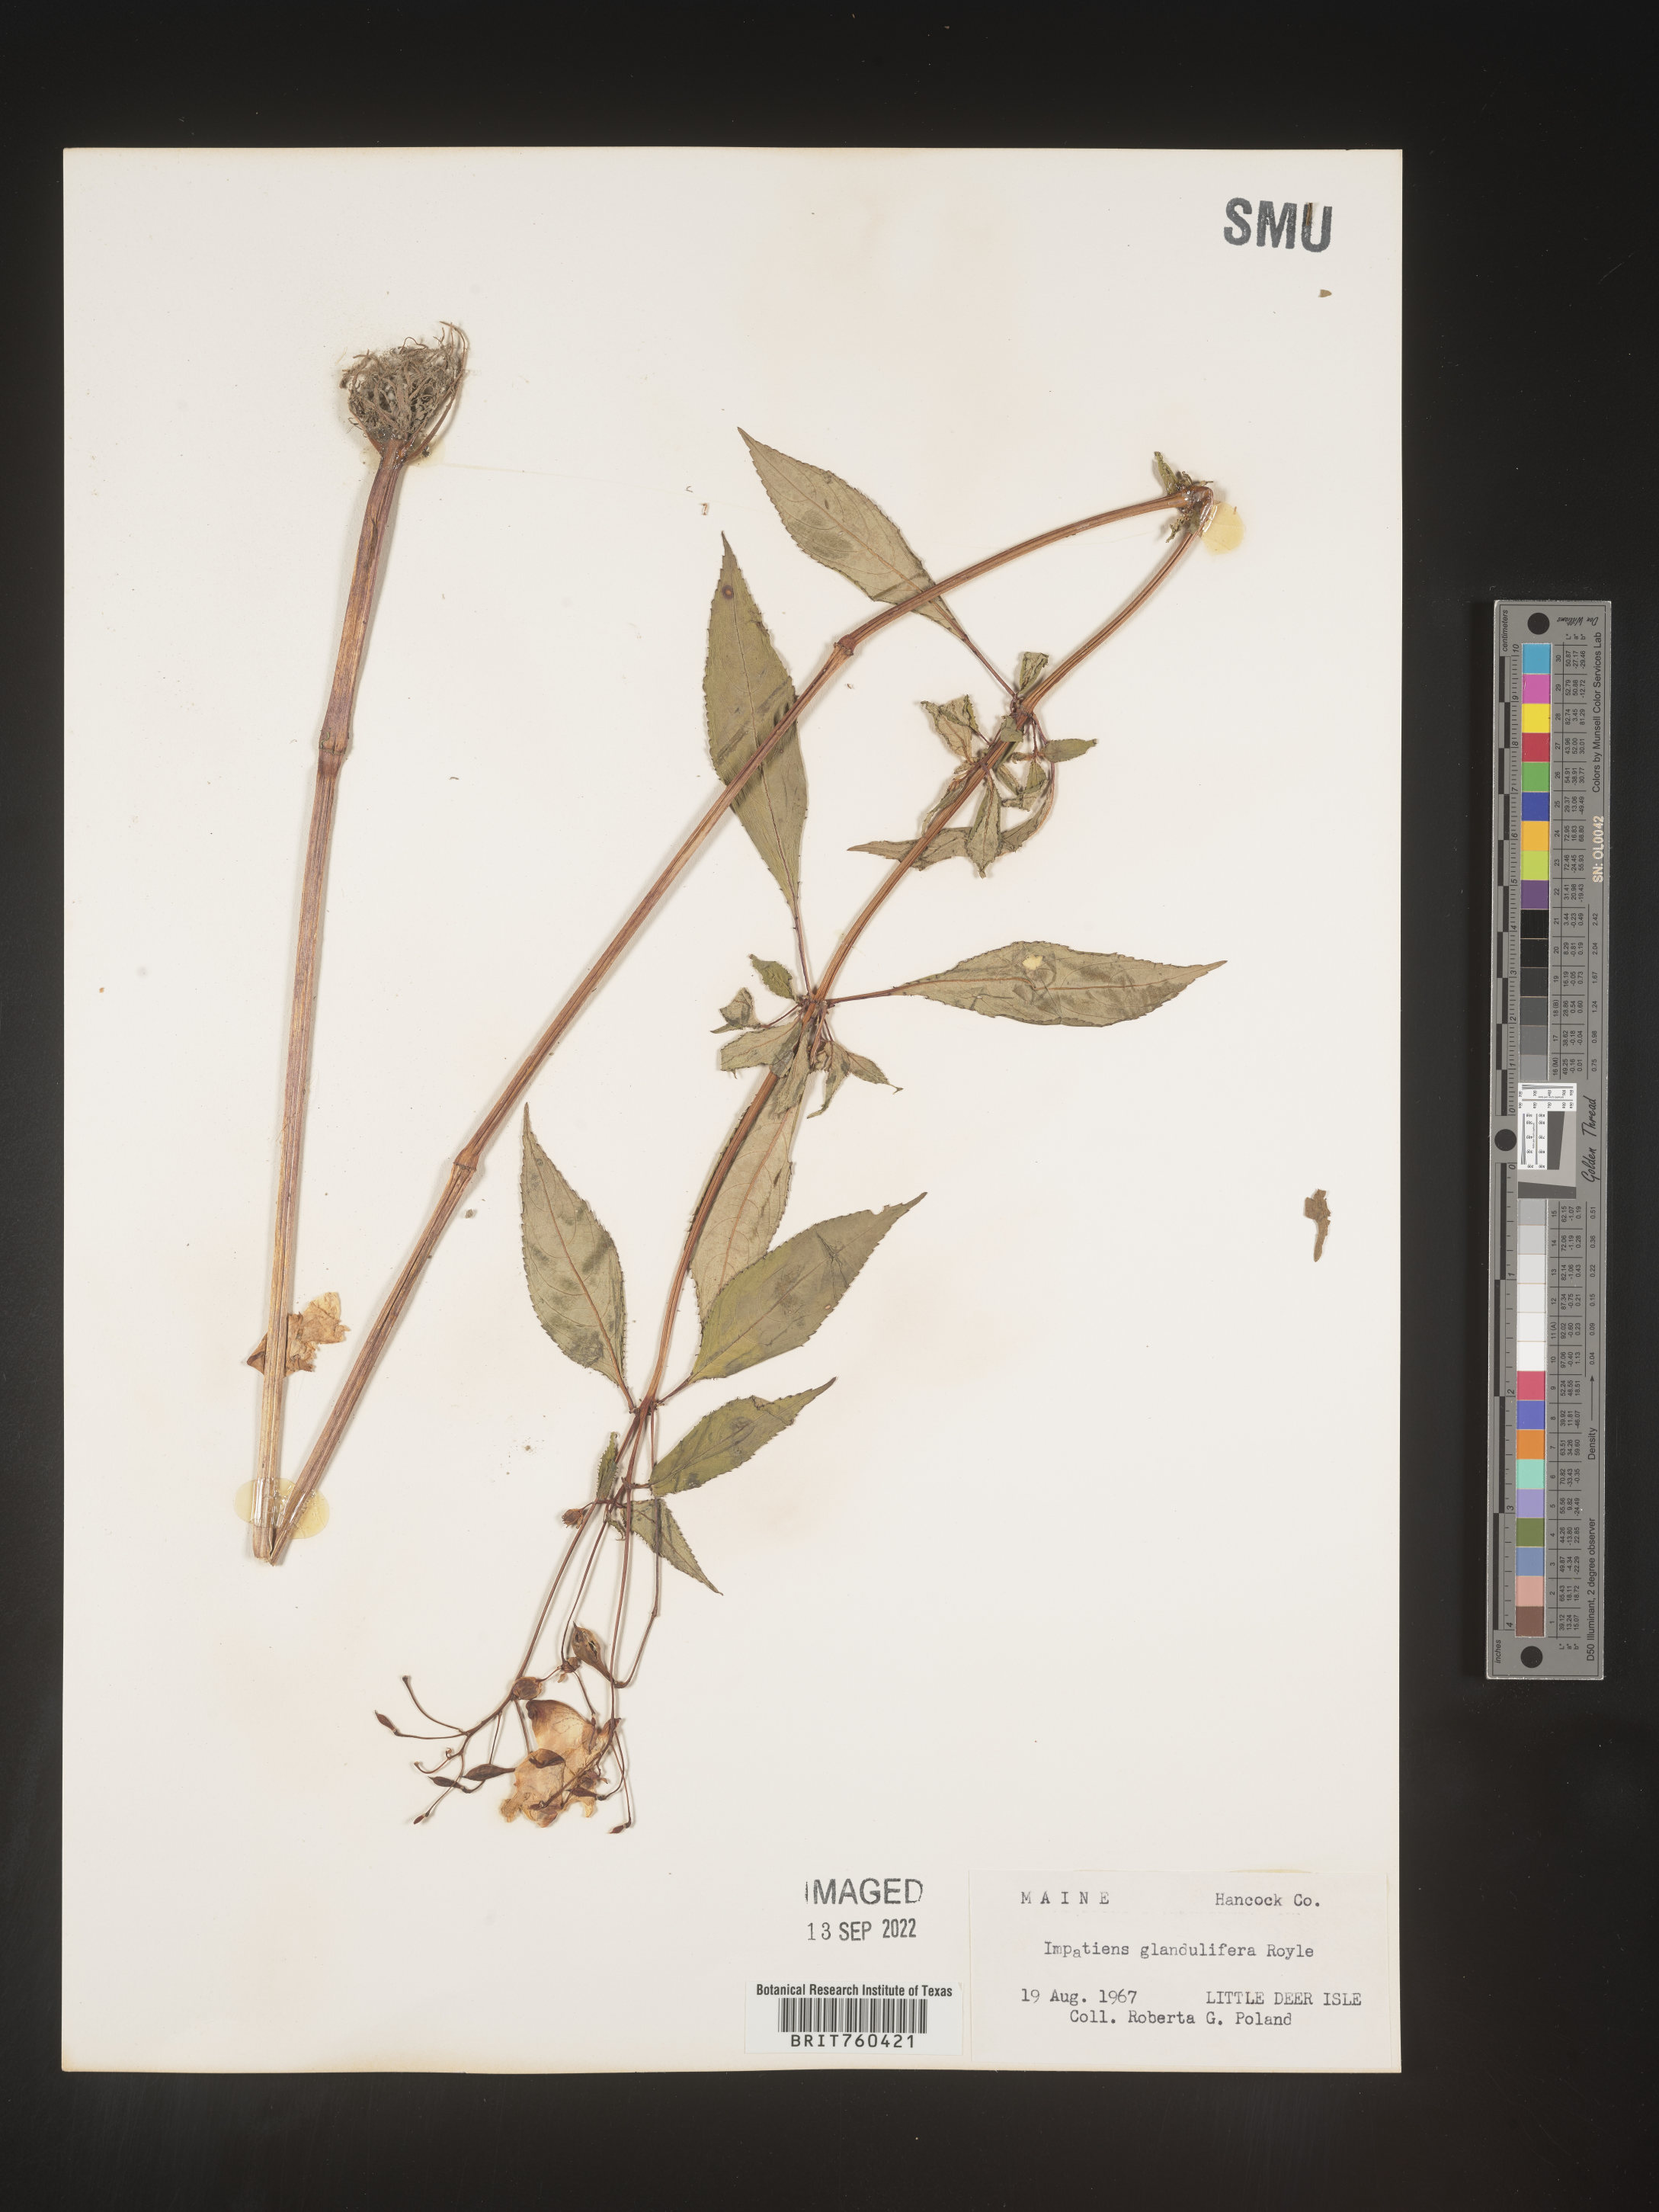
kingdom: Plantae
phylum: Tracheophyta
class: Magnoliopsida
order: Ericales
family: Balsaminaceae
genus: Impatiens
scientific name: Impatiens
